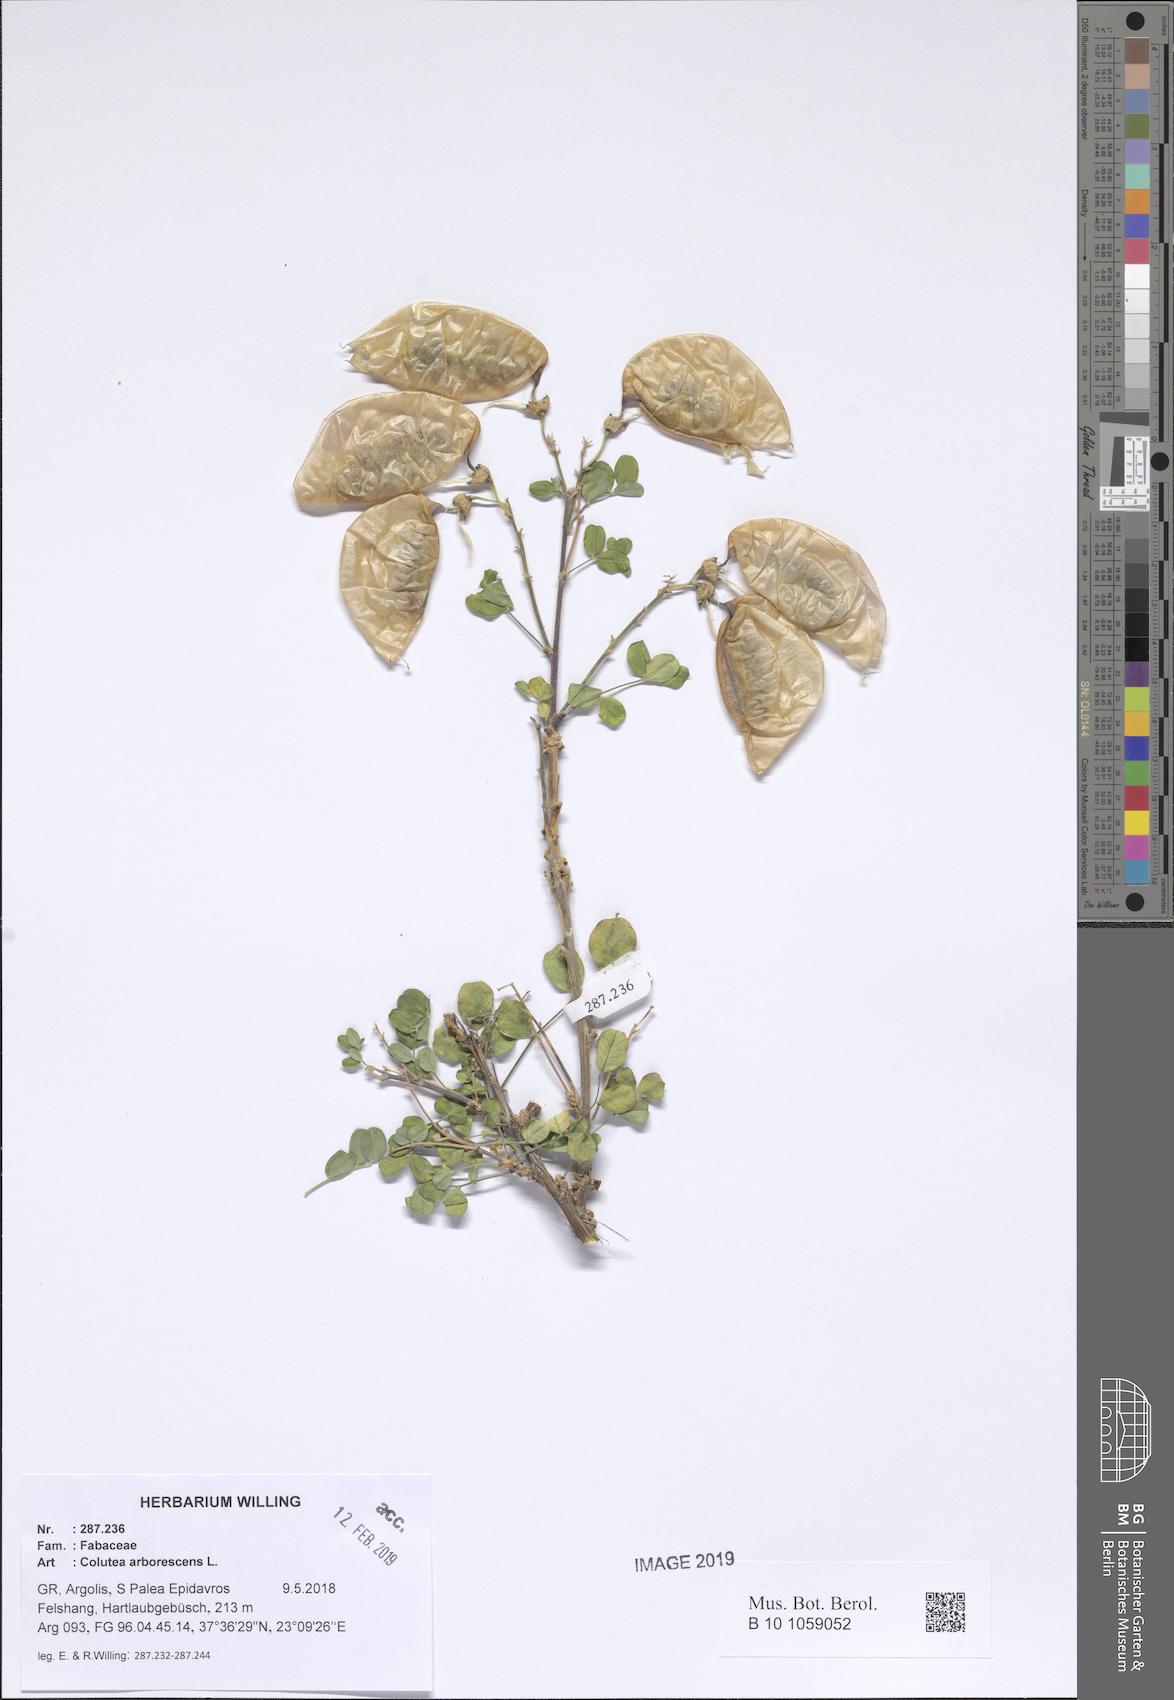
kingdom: Plantae
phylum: Tracheophyta
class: Magnoliopsida
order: Fabales
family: Fabaceae
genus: Colutea
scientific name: Colutea arborescens
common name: Bladder-senna
